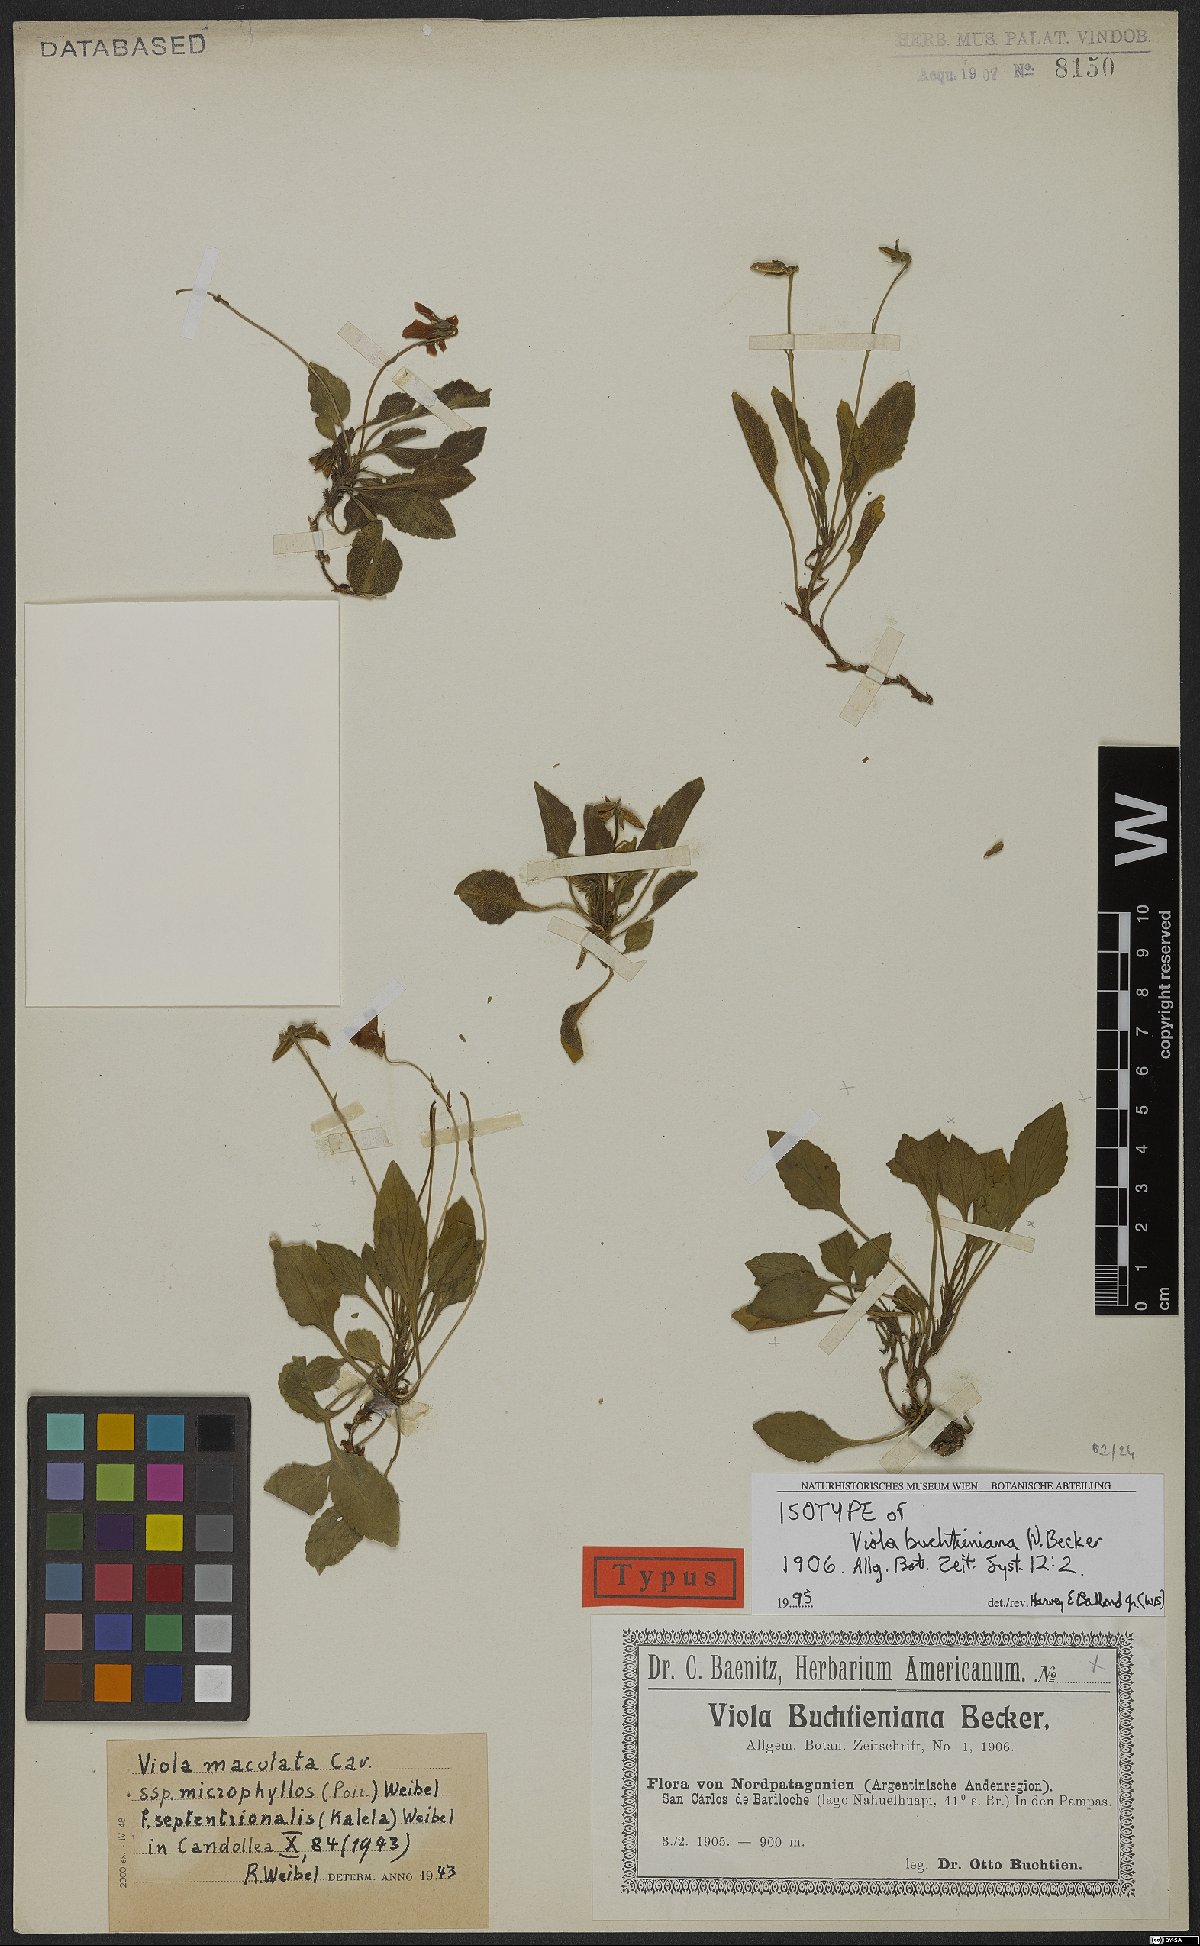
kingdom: Plantae
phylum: Tracheophyta
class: Magnoliopsida
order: Malpighiales
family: Violaceae
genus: Viola
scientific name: Viola maculata
